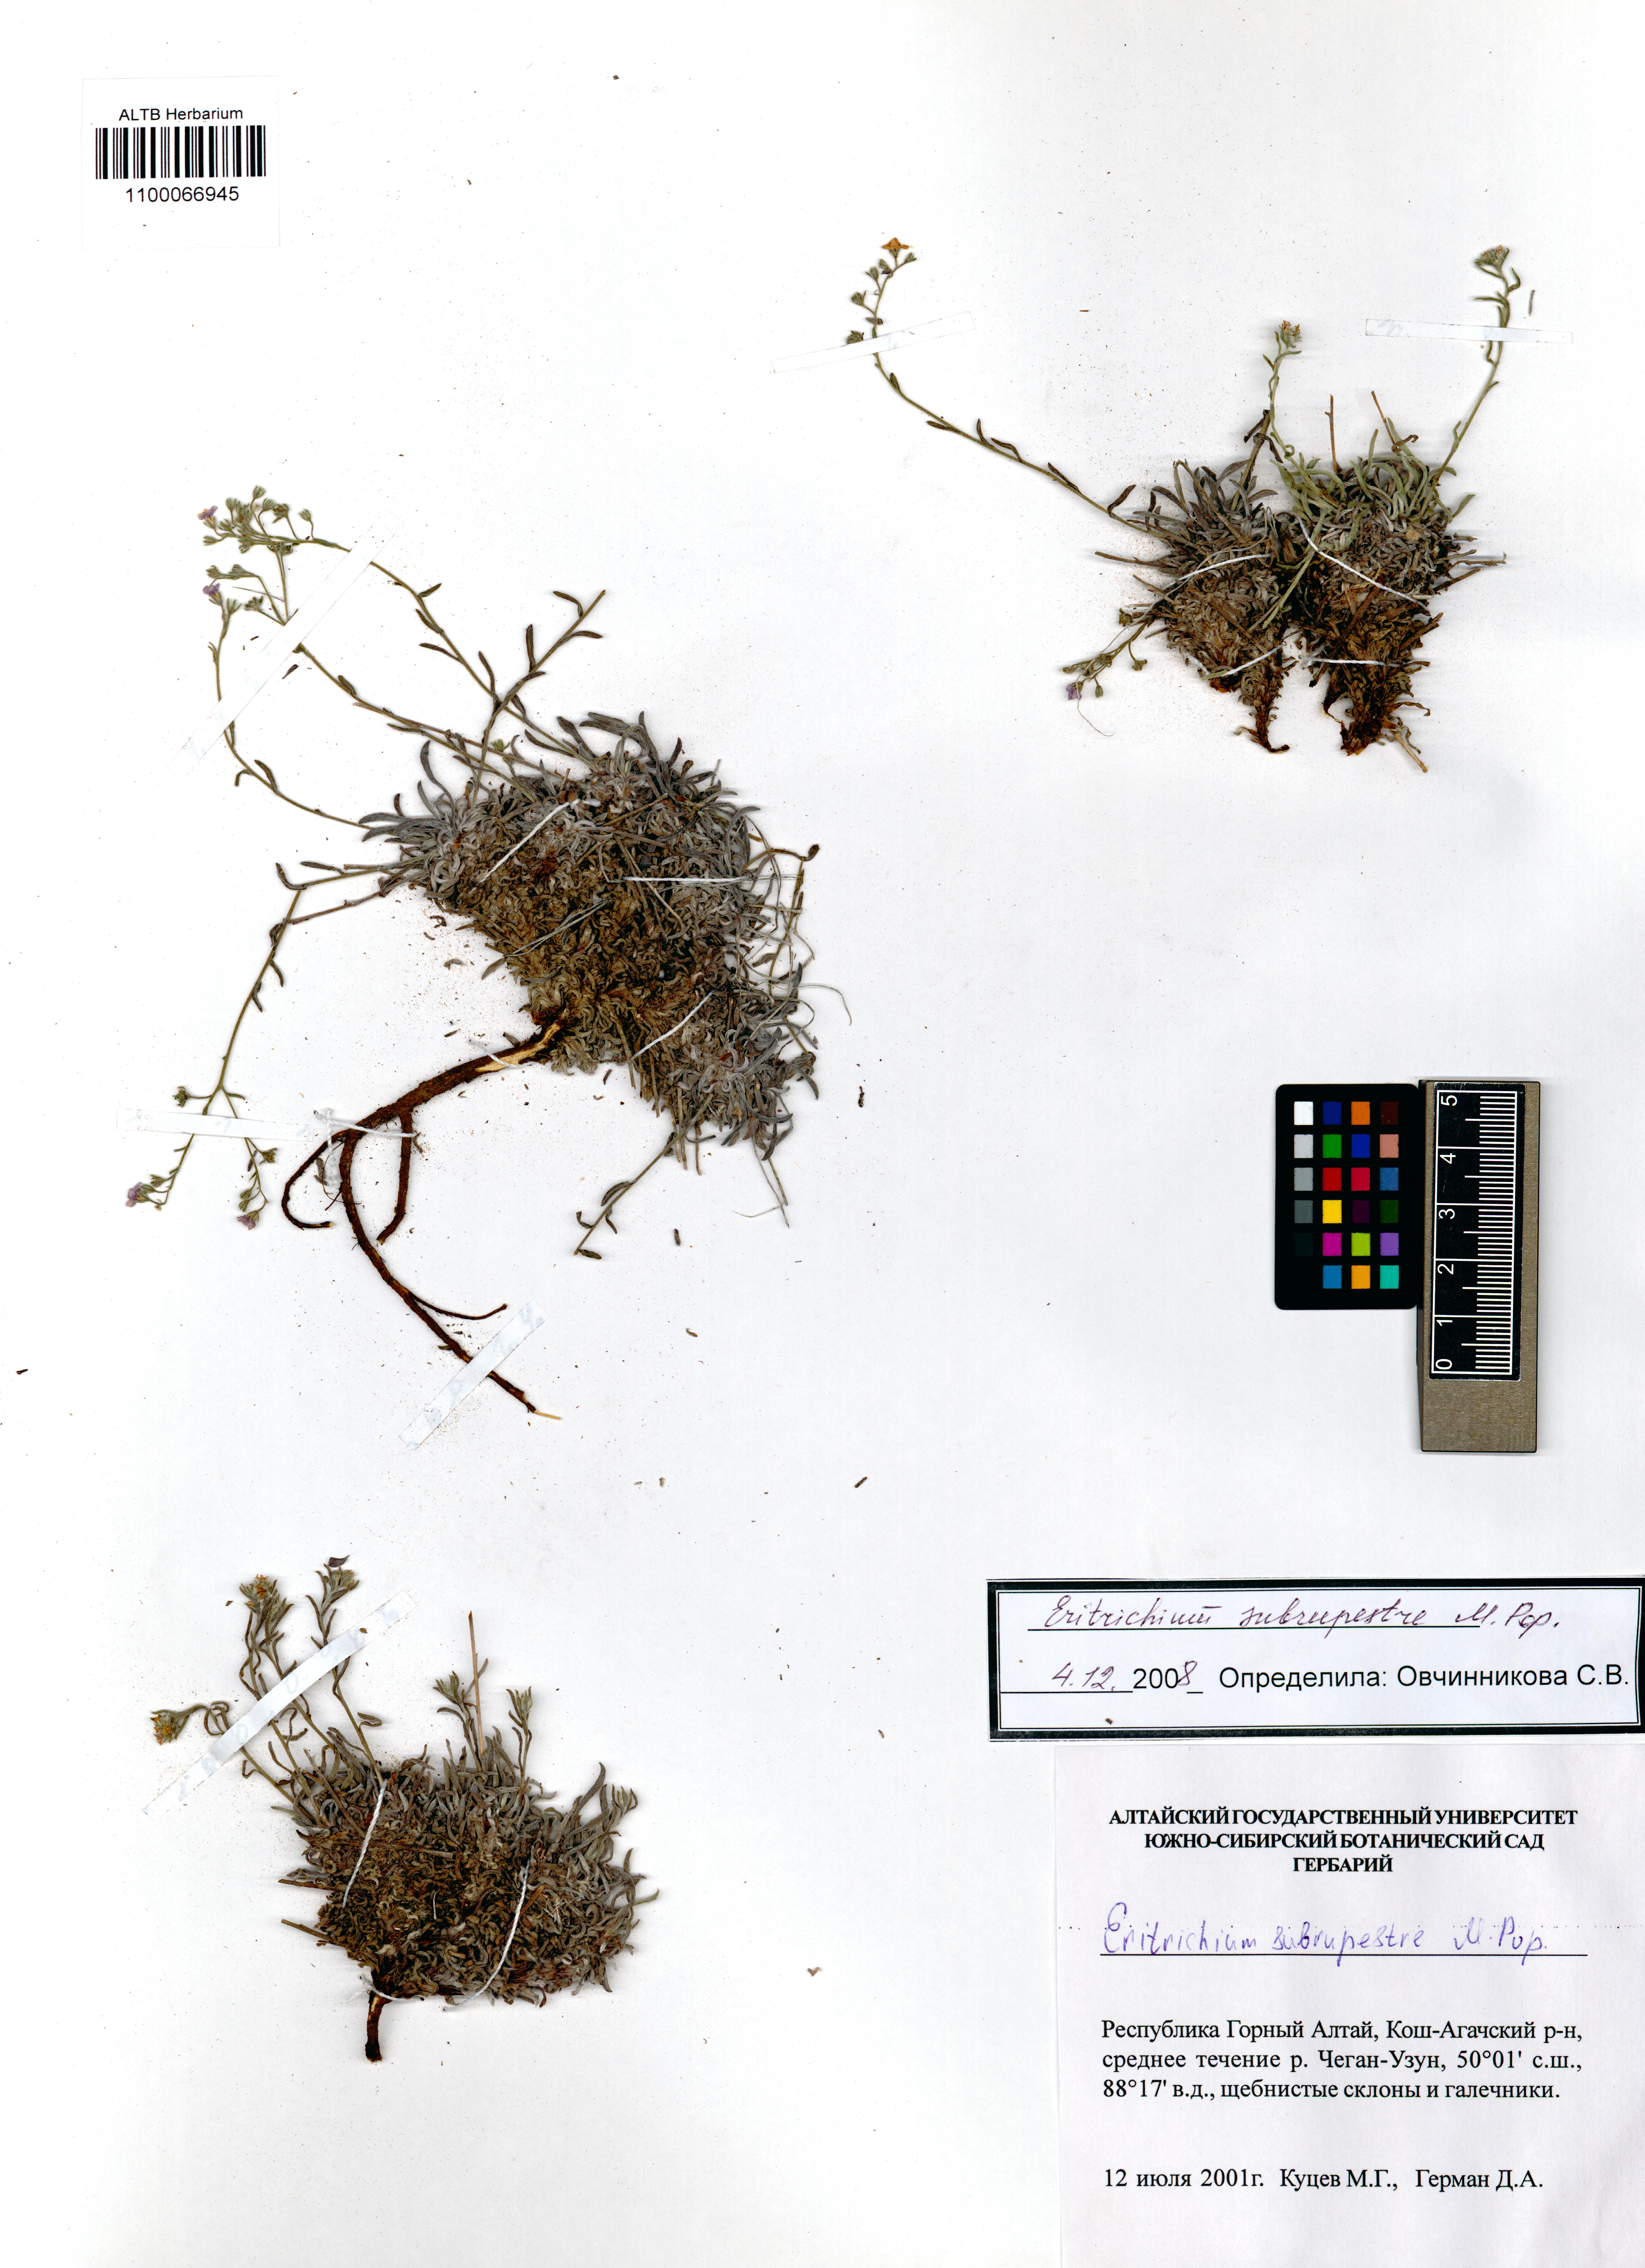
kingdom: Plantae
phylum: Tracheophyta
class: Magnoliopsida
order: Boraginales
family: Boraginaceae
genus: Eritrichium
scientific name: Eritrichium pauciflorum
